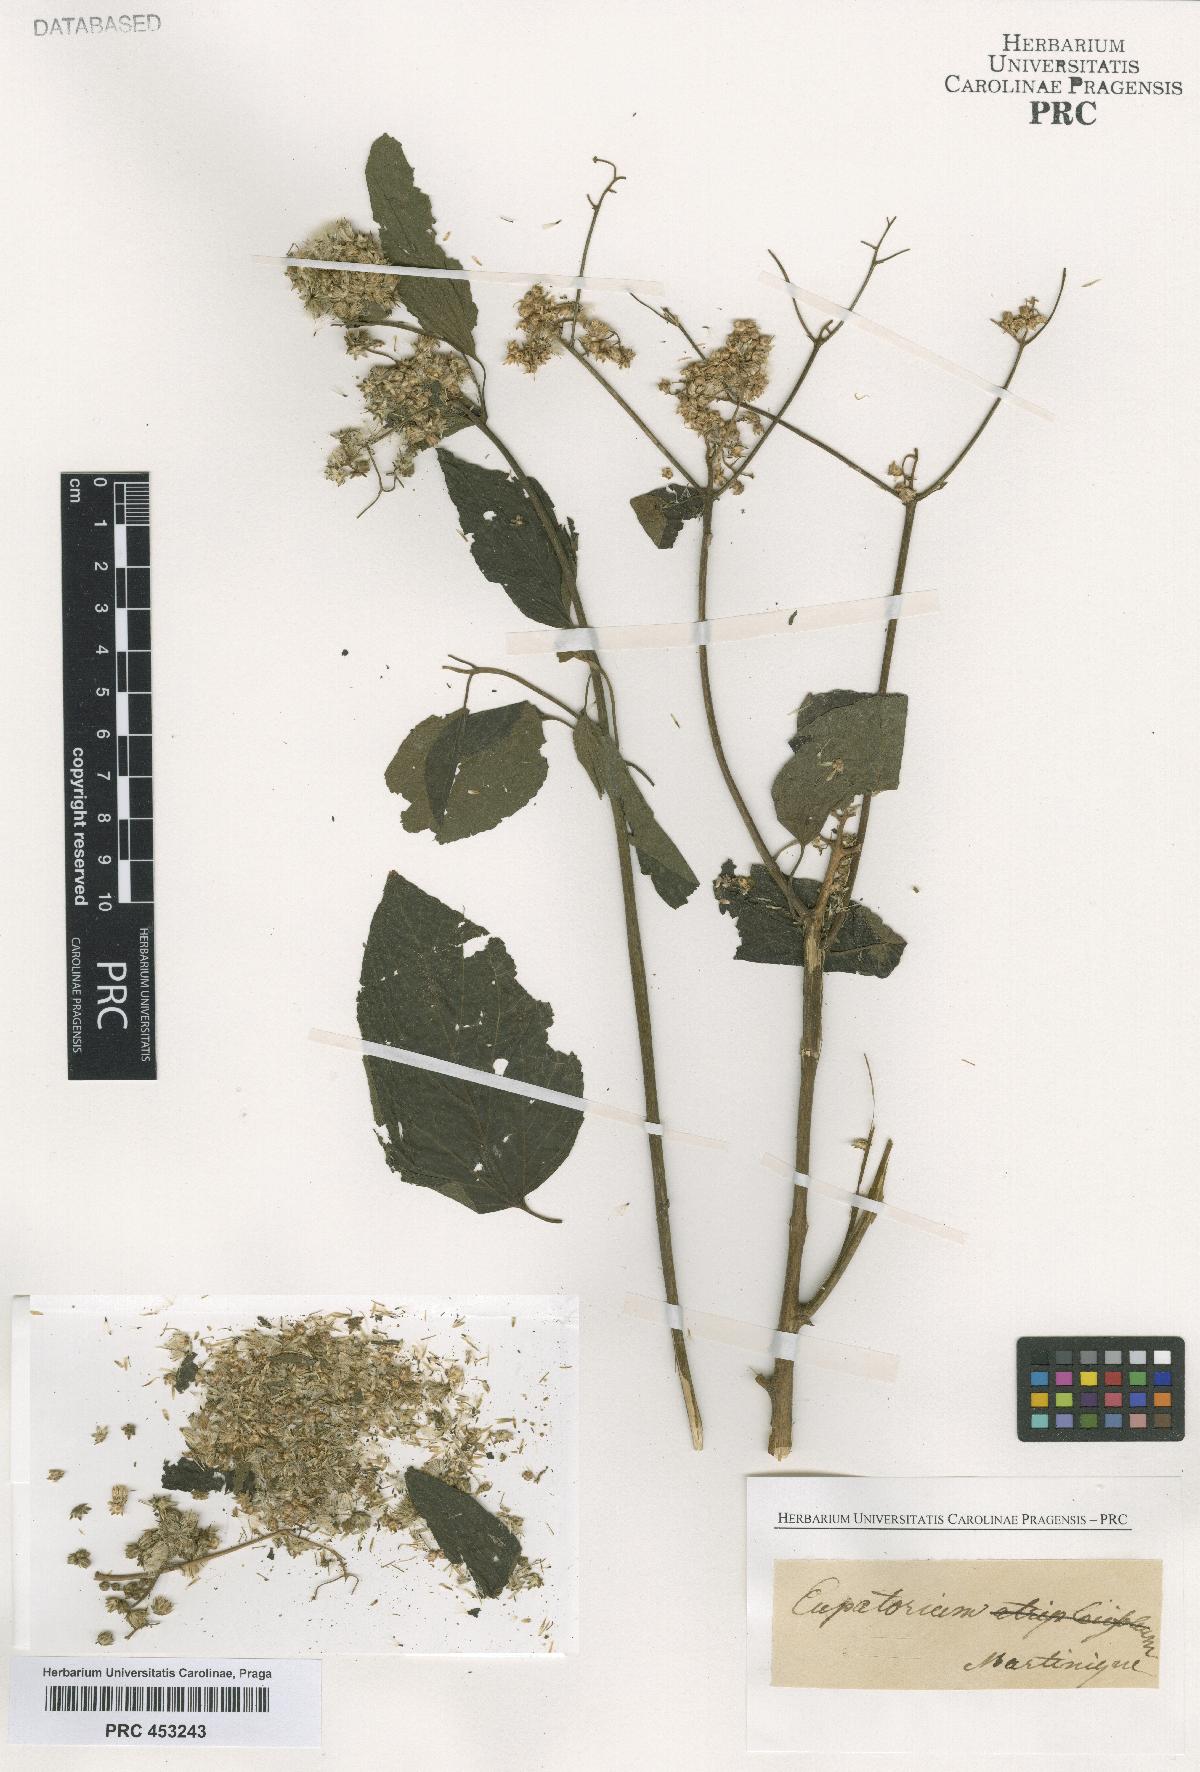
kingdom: Plantae
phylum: Tracheophyta
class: Magnoliopsida
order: Asterales
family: Asteraceae
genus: Eupatorium
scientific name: Eupatorium
